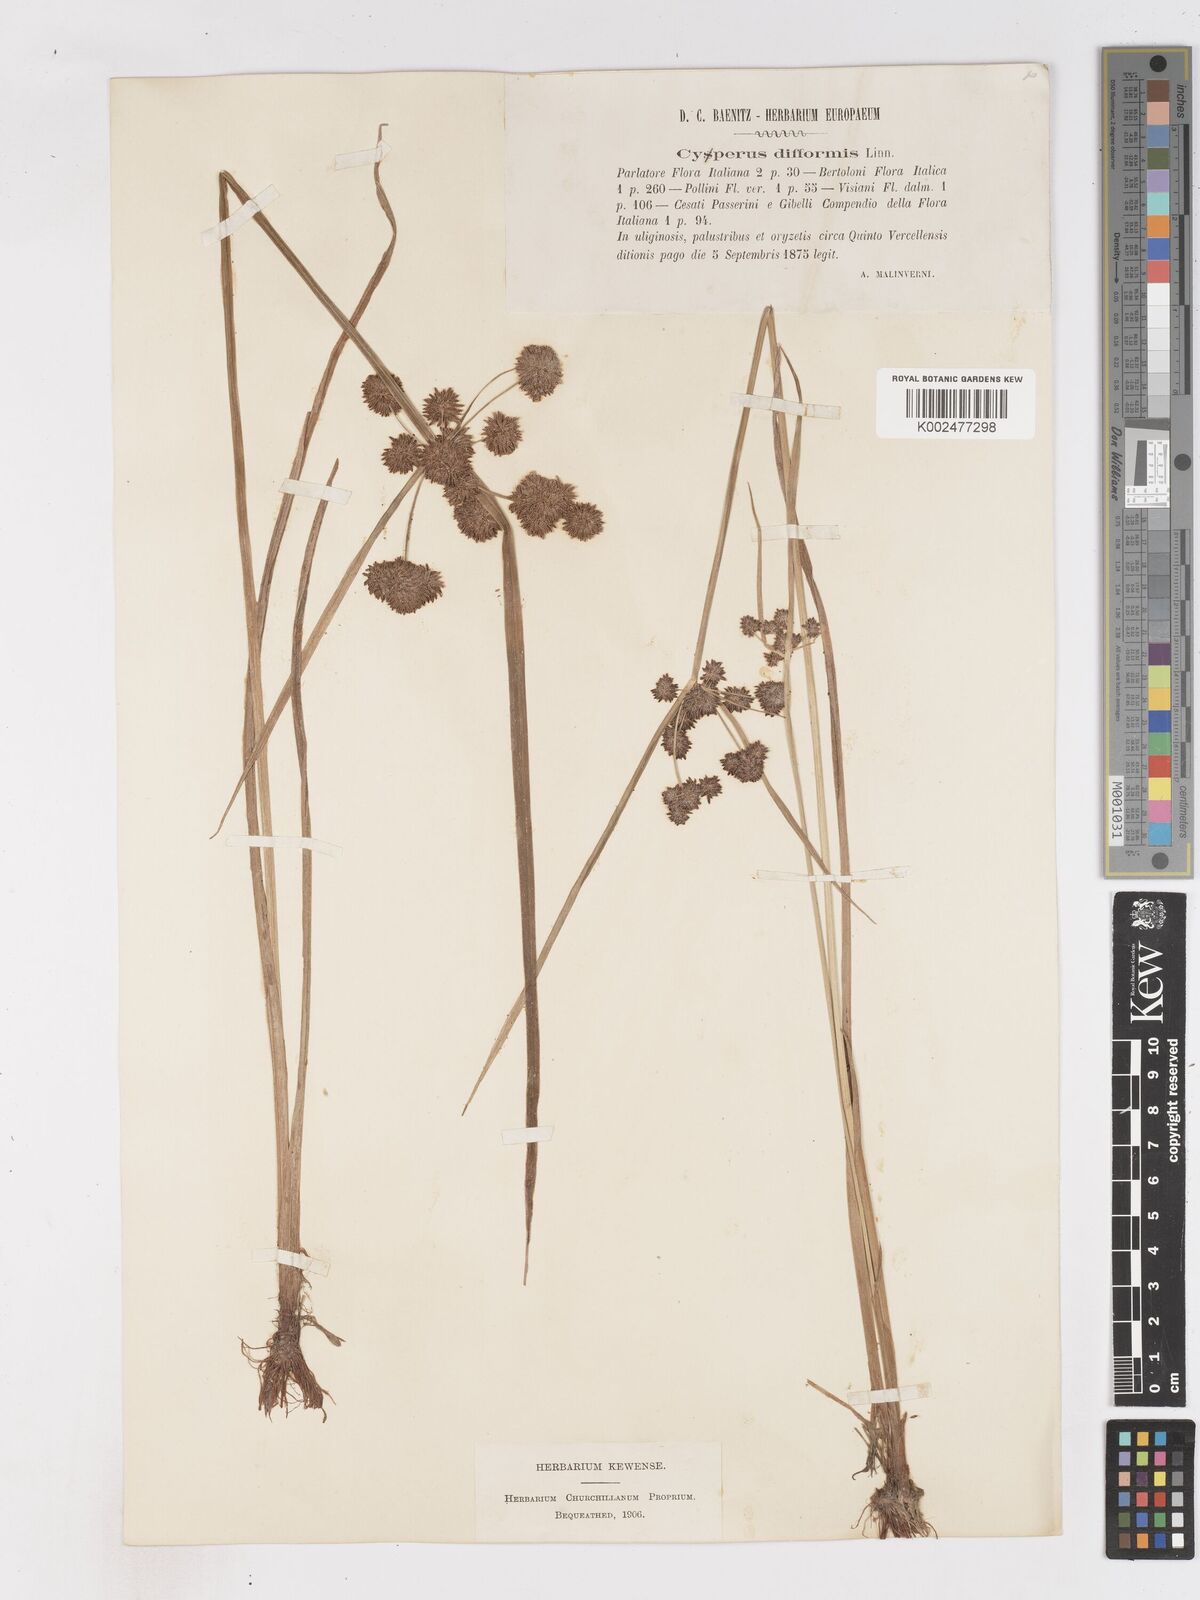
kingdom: Plantae
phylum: Tracheophyta
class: Liliopsida
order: Poales
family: Cyperaceae
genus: Cyperus
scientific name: Cyperus difformis
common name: Variable flatsedge
